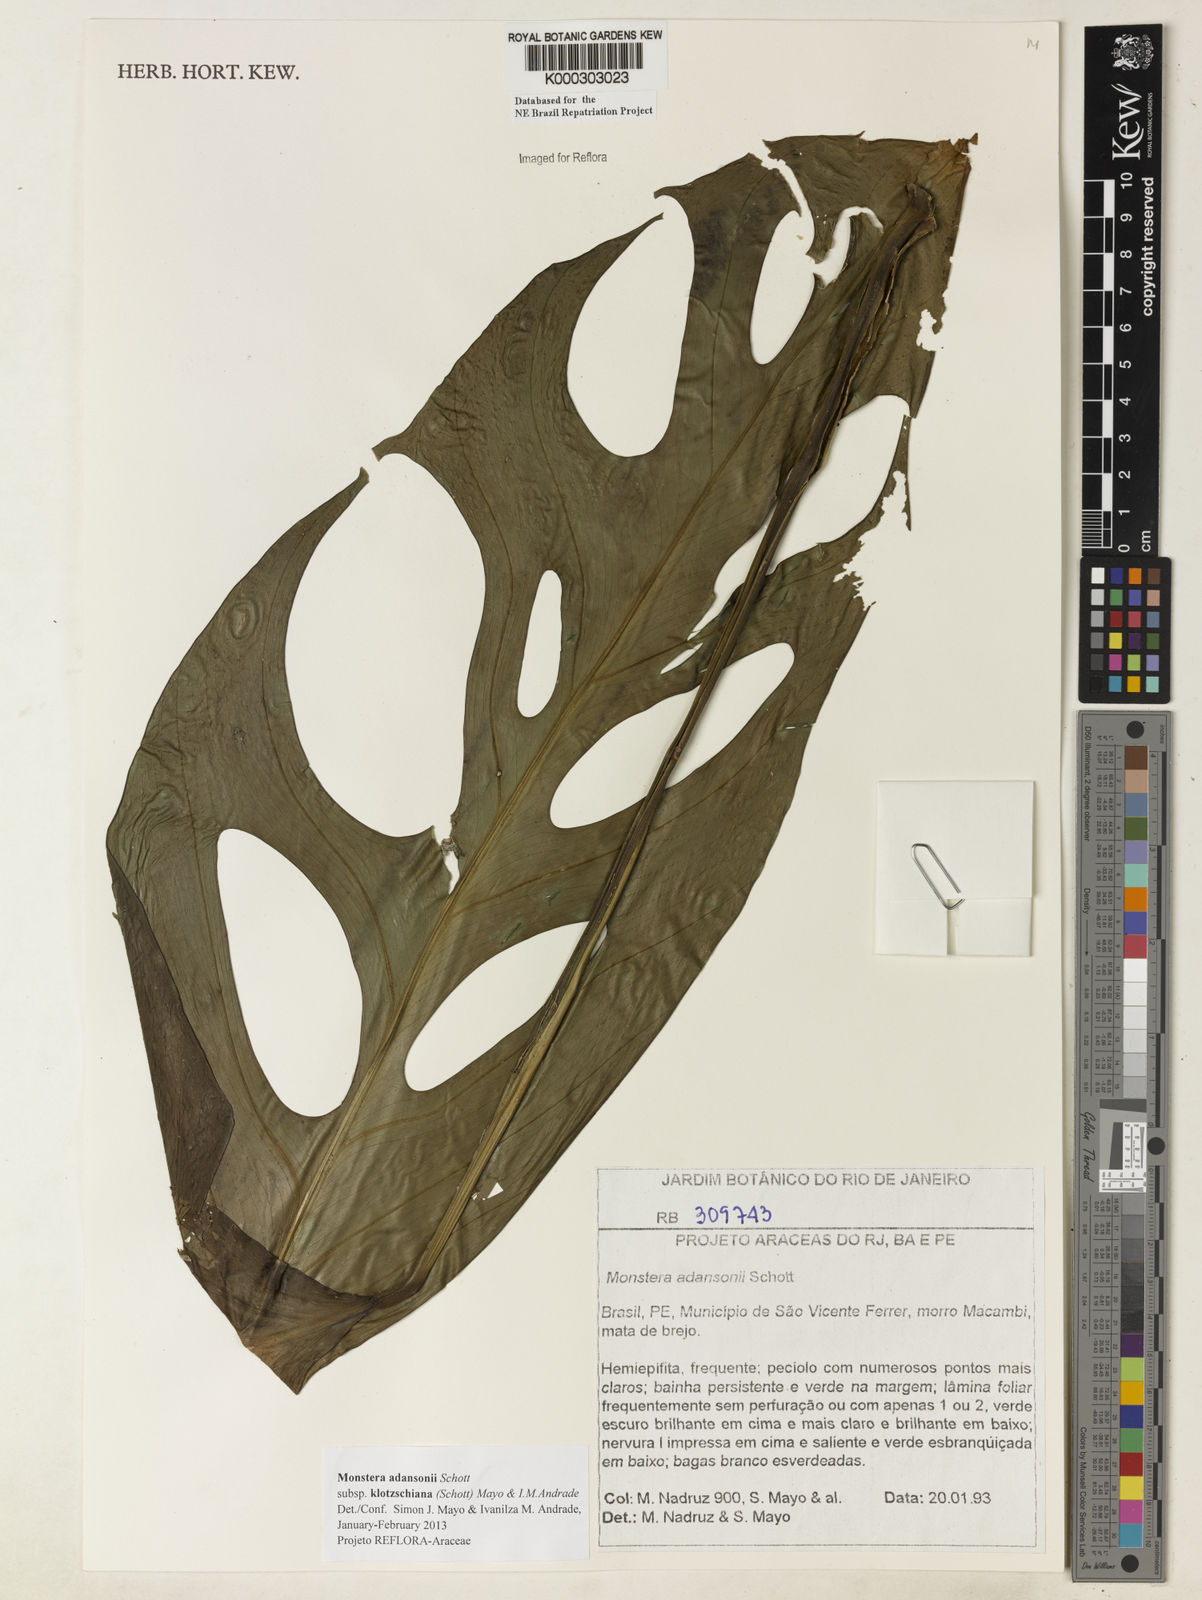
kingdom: Plantae
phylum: Tracheophyta
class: Liliopsida
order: Alismatales
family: Araceae
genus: Monstera
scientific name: Monstera adansonii
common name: Tarovine
